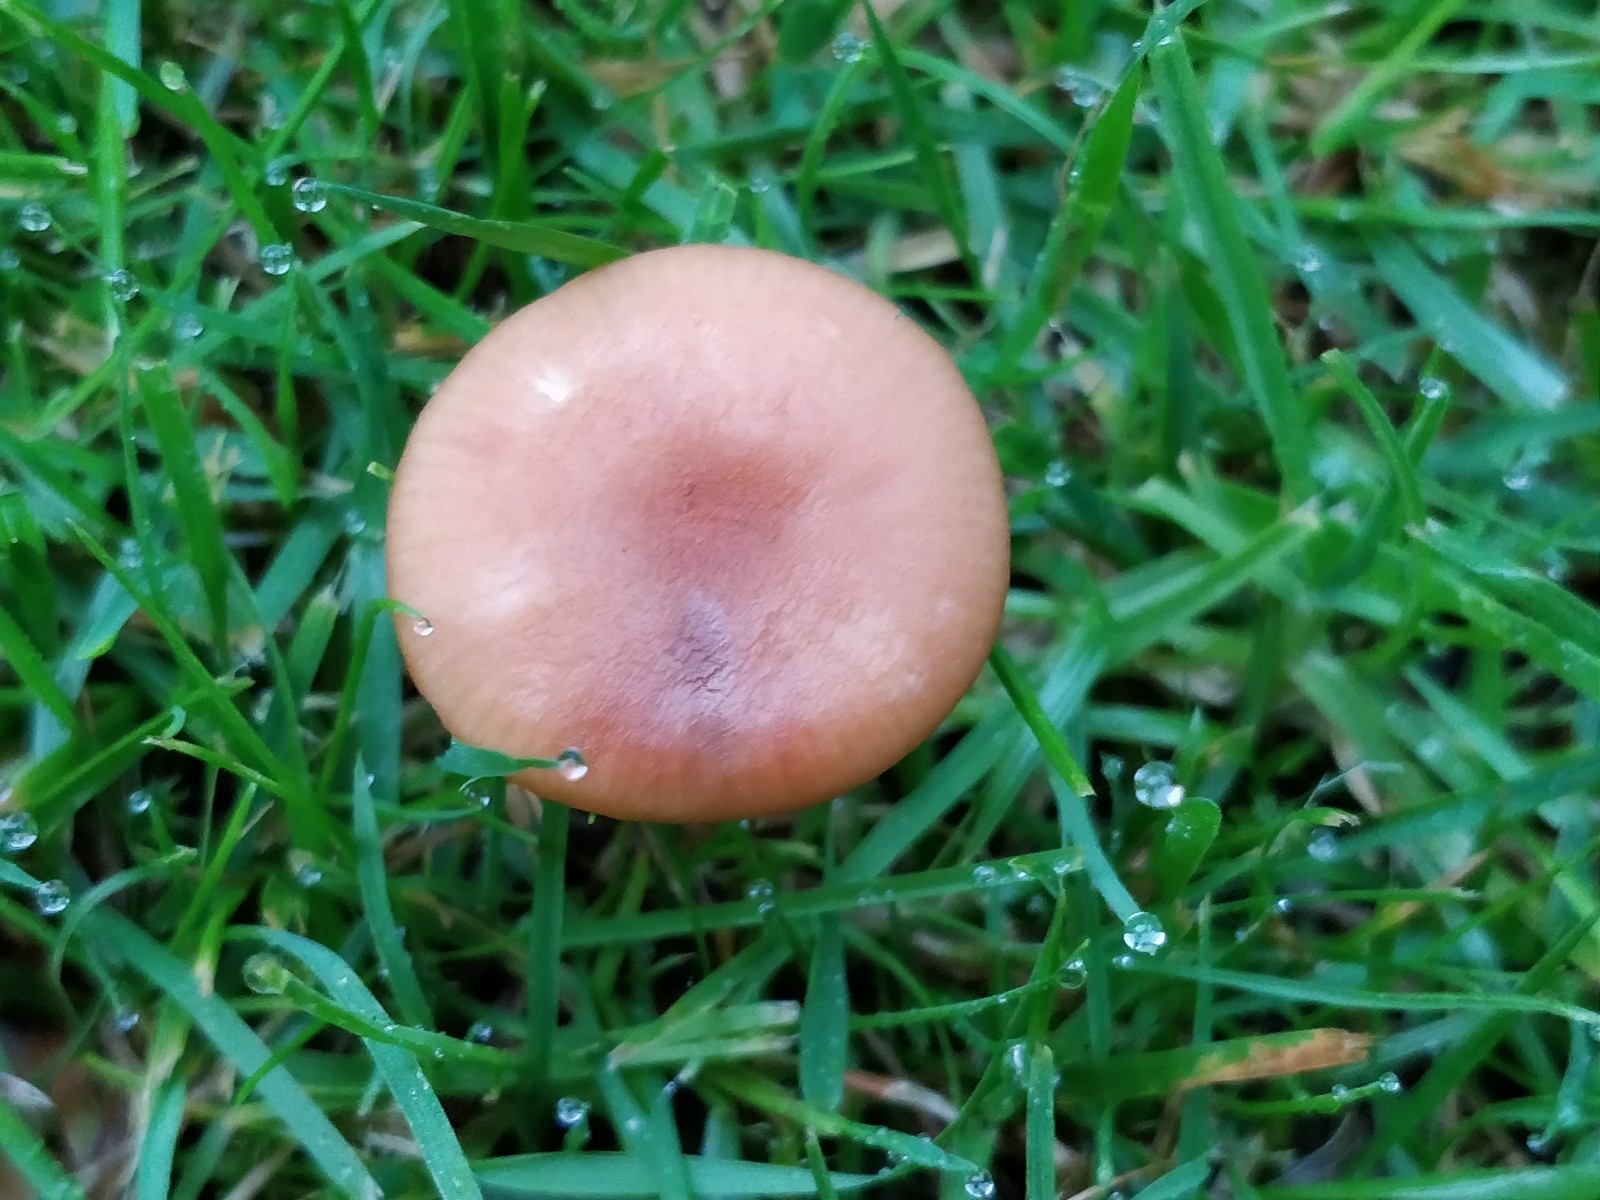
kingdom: Fungi
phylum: Basidiomycota
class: Agaricomycetes
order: Agaricales
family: Hydnangiaceae
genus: Laccaria
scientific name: Laccaria laccata
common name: rød ametysthat
